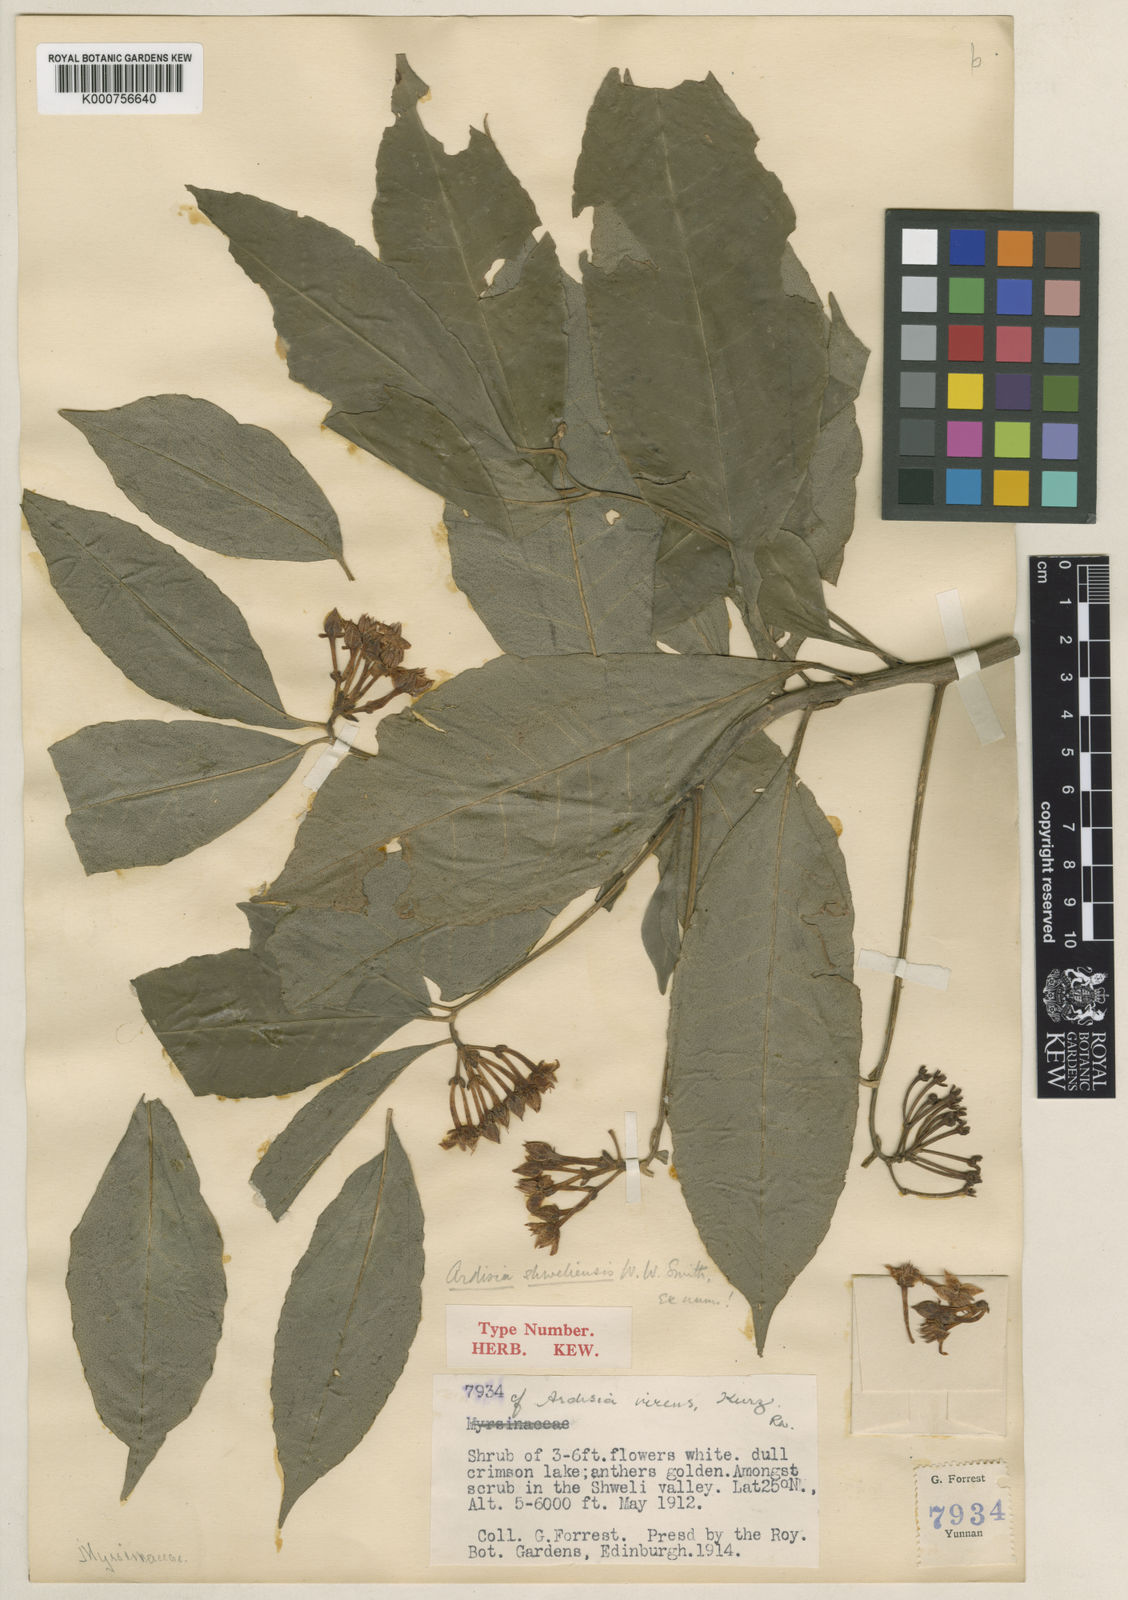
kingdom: Plantae
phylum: Tracheophyta
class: Magnoliopsida
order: Ericales
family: Primulaceae
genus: Ardisia
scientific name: Ardisia shweliensis
